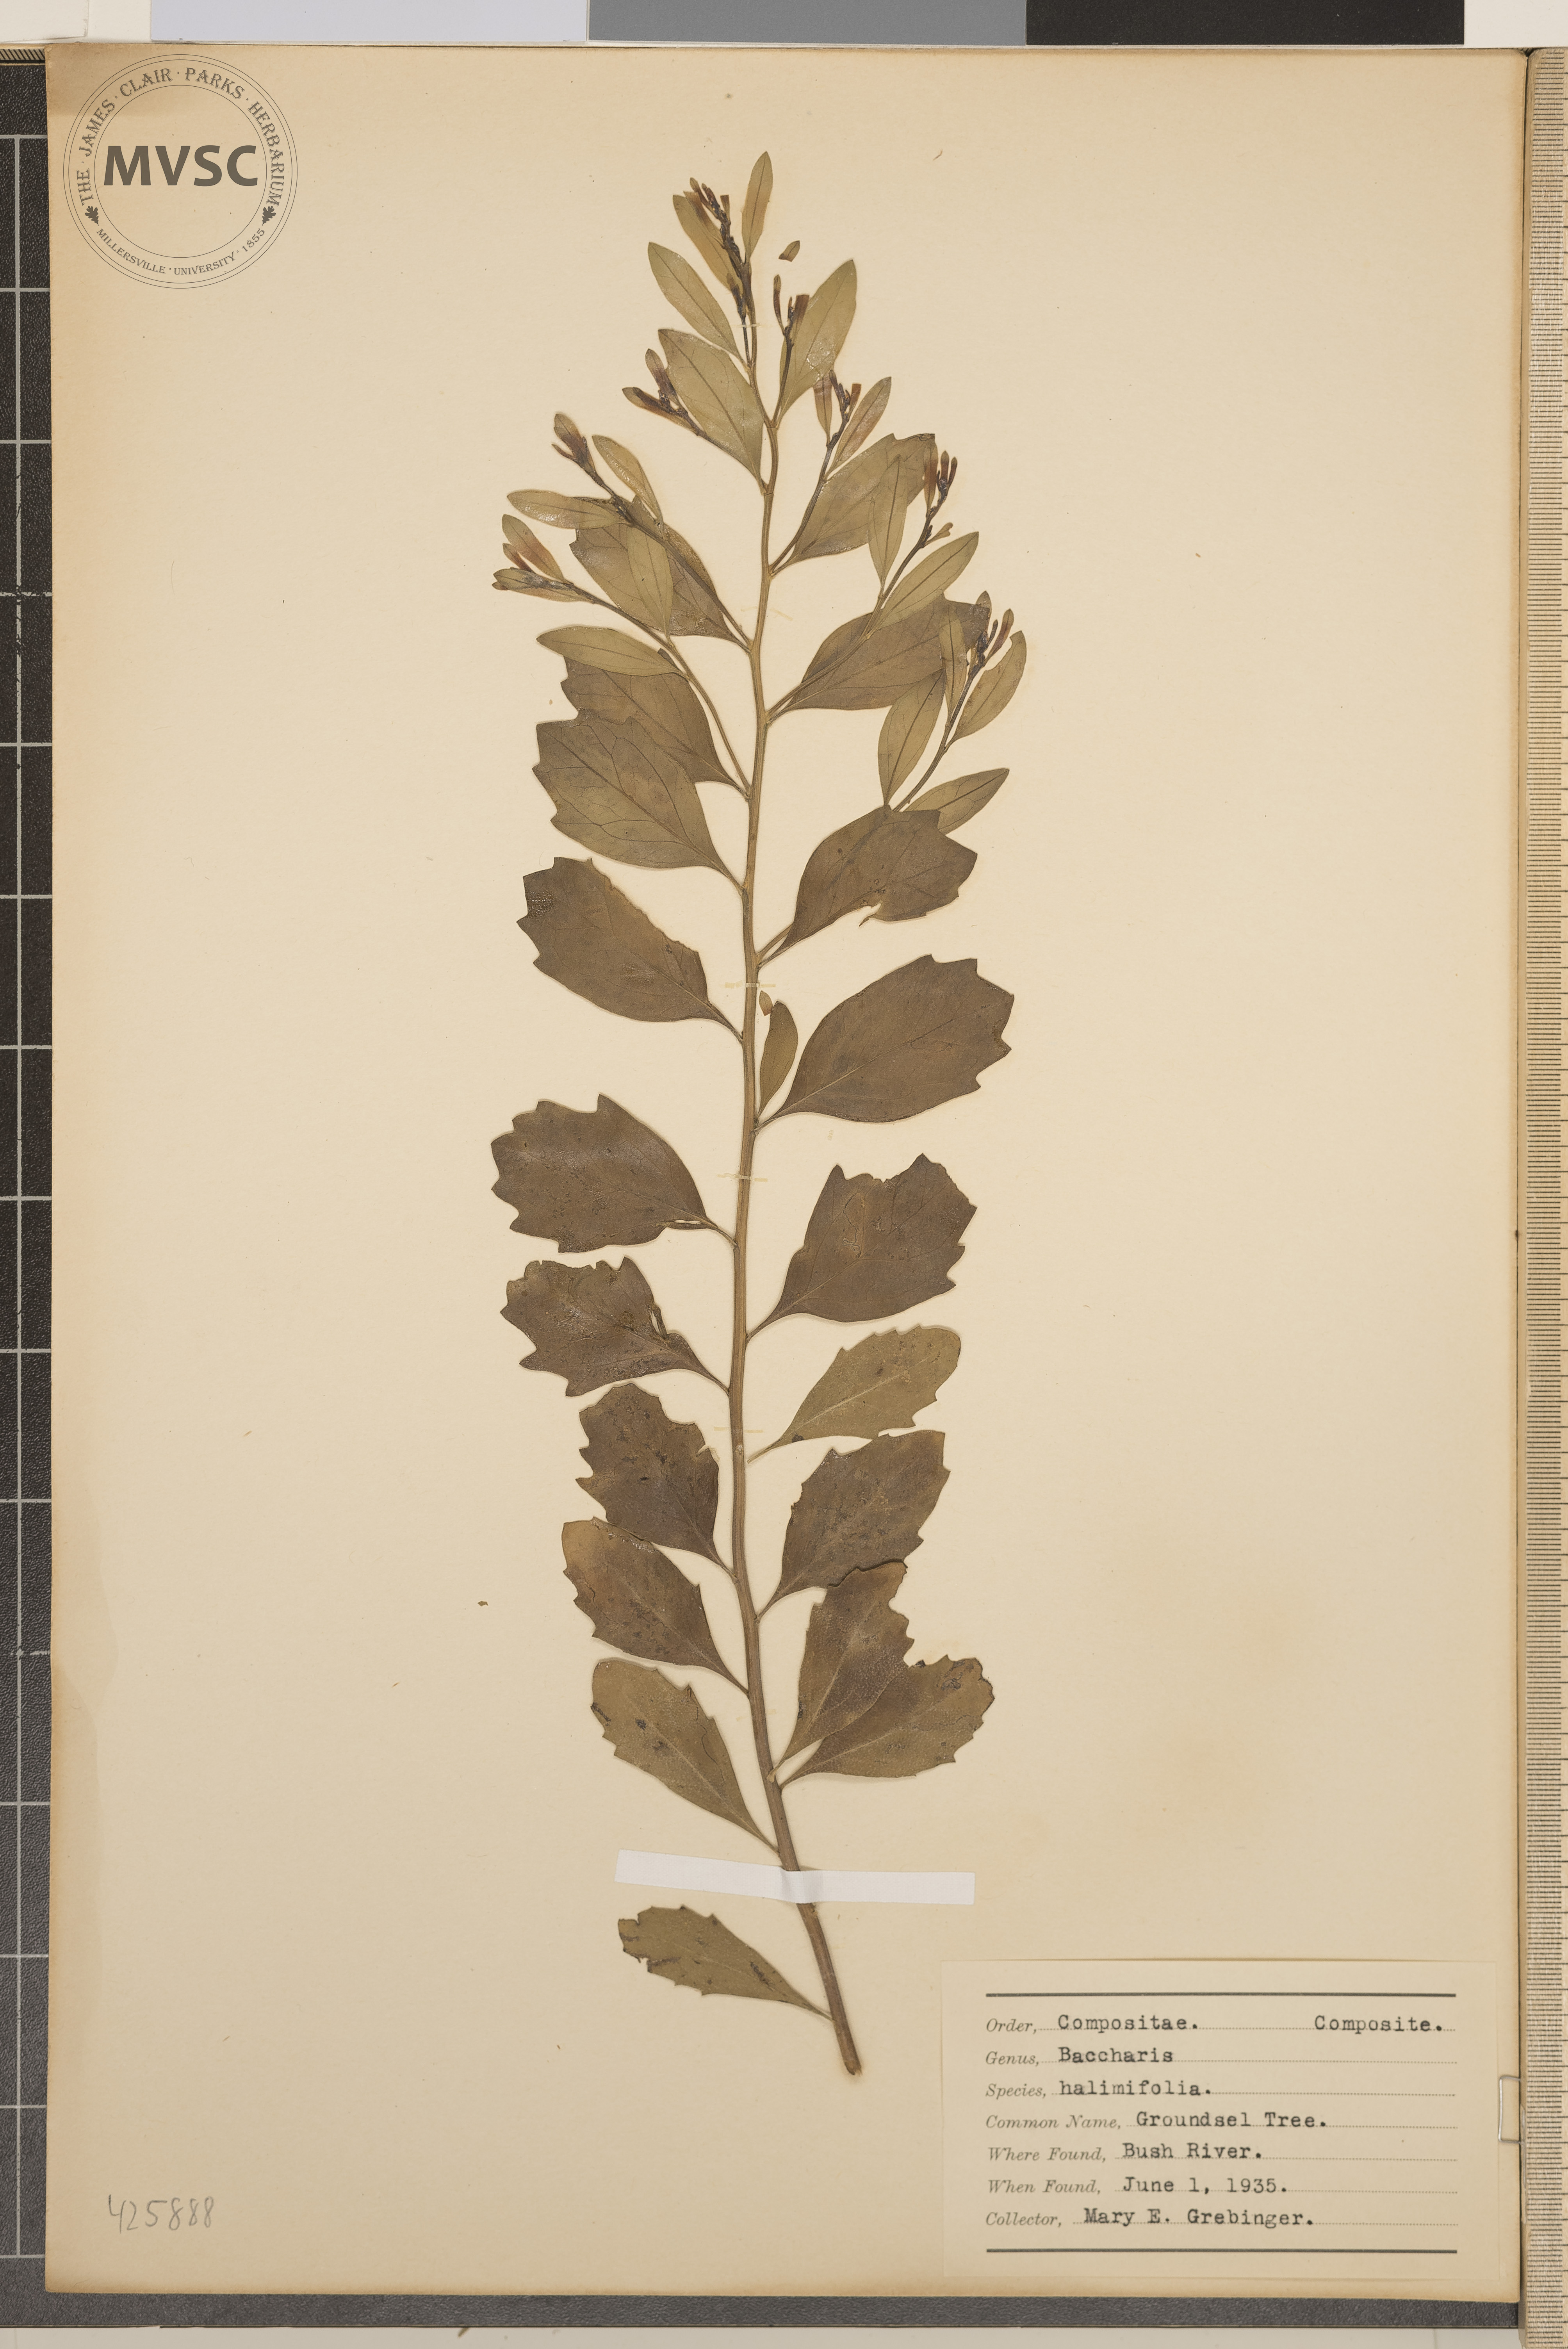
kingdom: Plantae
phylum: Tracheophyta
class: Magnoliopsida
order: Asterales
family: Asteraceae
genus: Baccharis
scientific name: Baccharis halimifolia
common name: Groundsel tree
